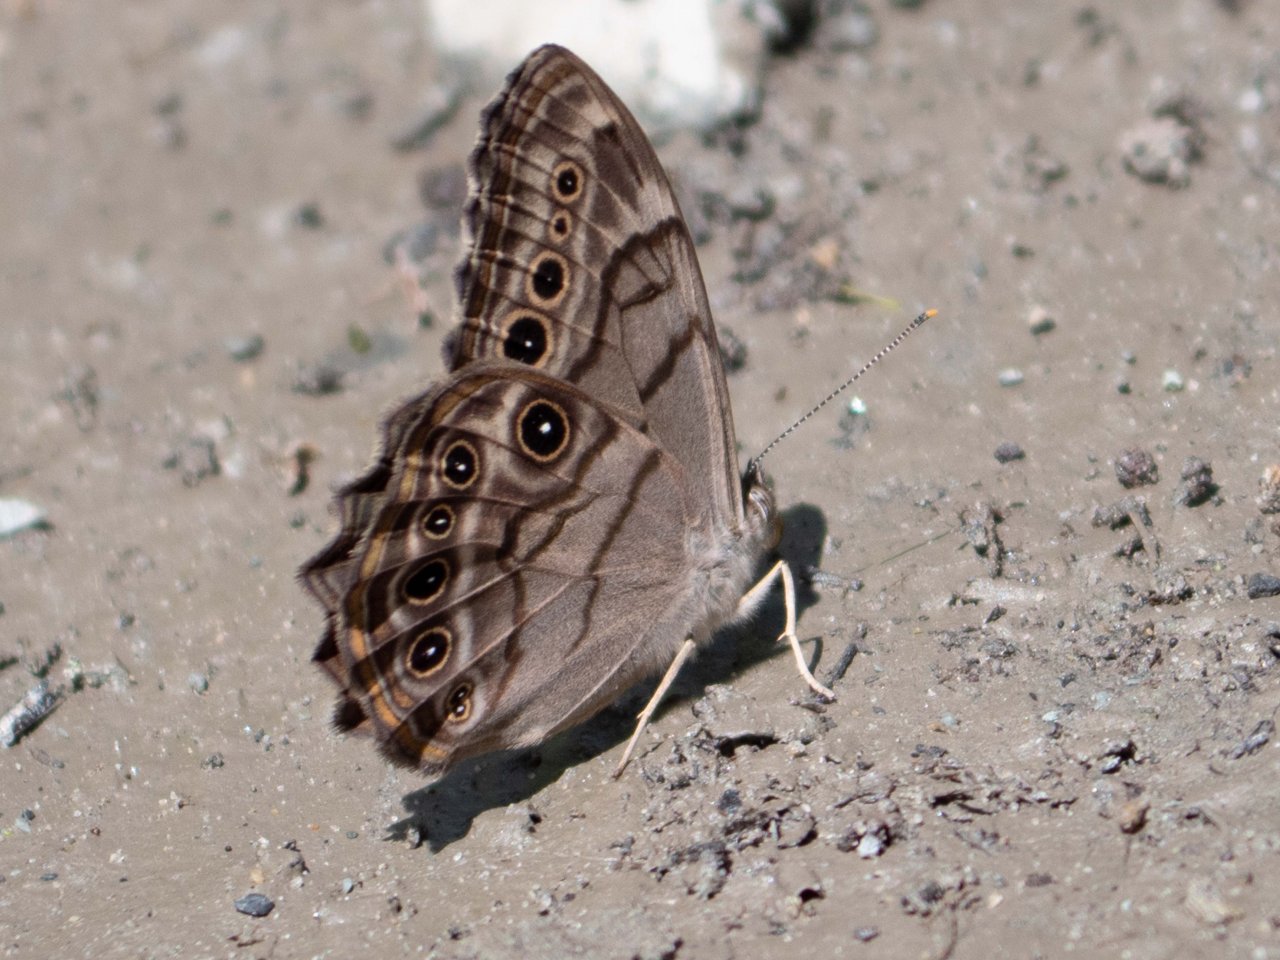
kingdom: Animalia
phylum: Arthropoda
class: Insecta
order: Lepidoptera
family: Nymphalidae
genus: Lethe
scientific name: Lethe anthedon
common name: Northern Pearly-Eye
